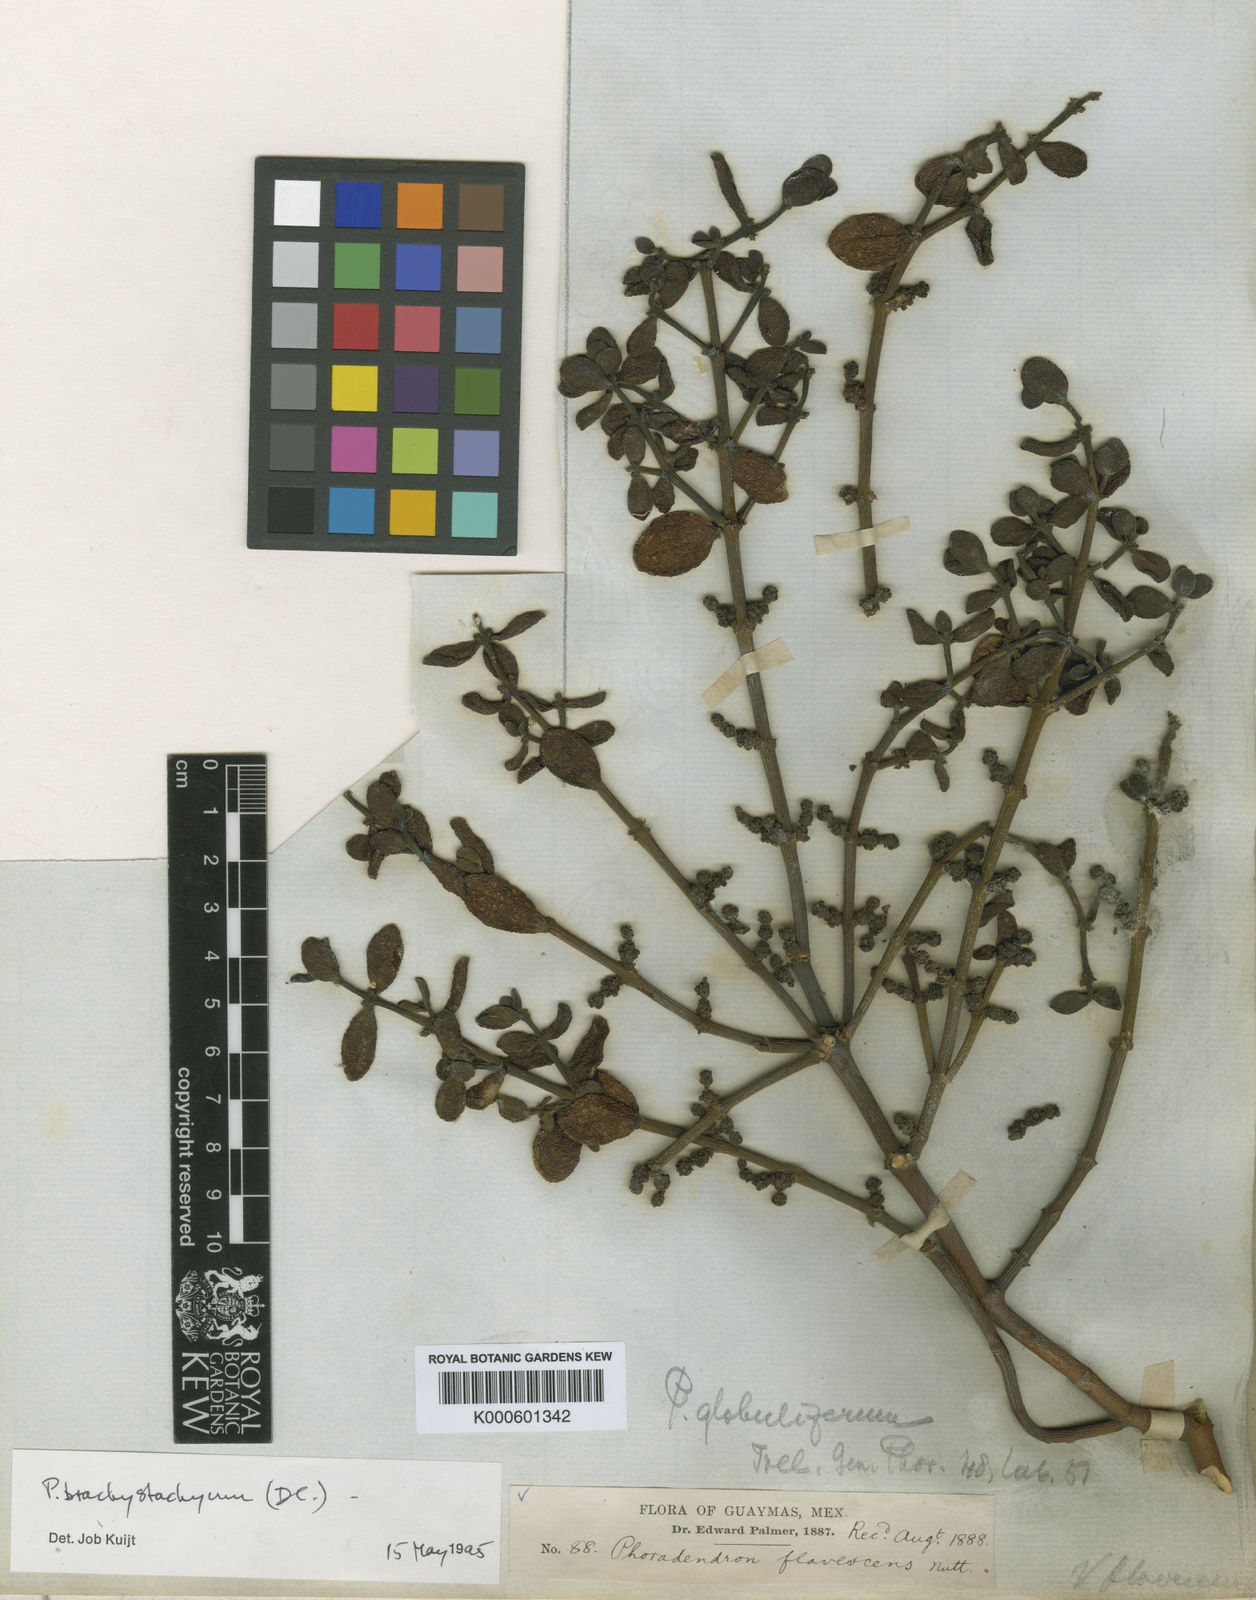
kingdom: Plantae
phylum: Tracheophyta
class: Magnoliopsida
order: Santalales
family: Viscaceae
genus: Phoradendron
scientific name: Phoradendron brachystachyum
